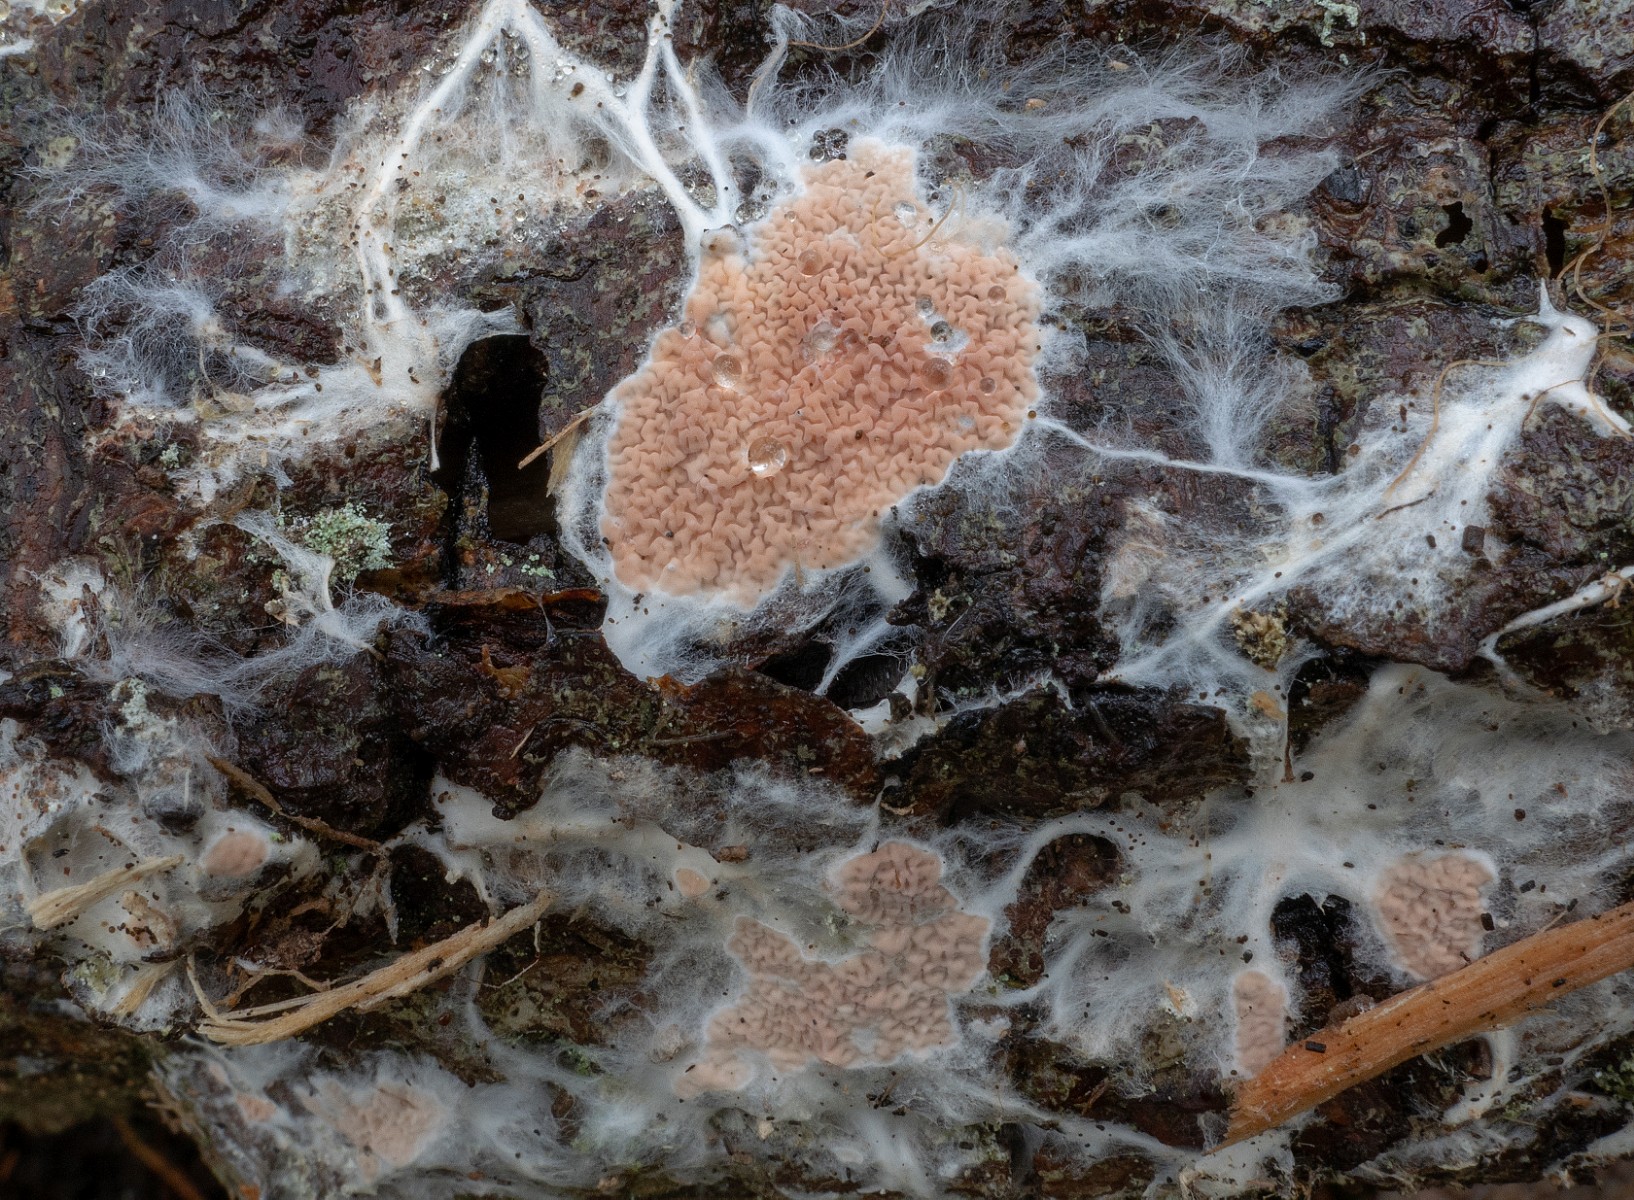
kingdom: Fungi
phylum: Basidiomycota
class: Agaricomycetes
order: Polyporales
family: Irpicaceae
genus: Crystallicutis
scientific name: Crystallicutis serpens
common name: gråviolet barkhinde
